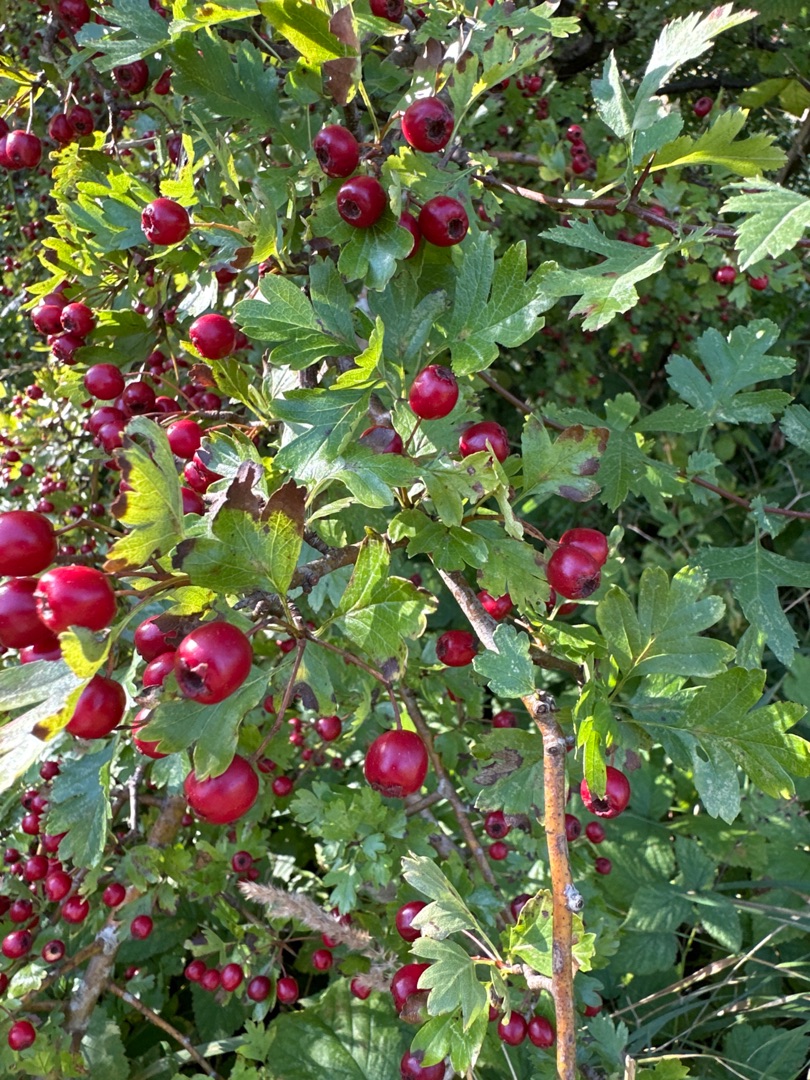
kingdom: Plantae
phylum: Tracheophyta
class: Magnoliopsida
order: Rosales
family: Rosaceae
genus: Crataegus
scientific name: Crataegus monogyna
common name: Engriflet hvidtjørn
